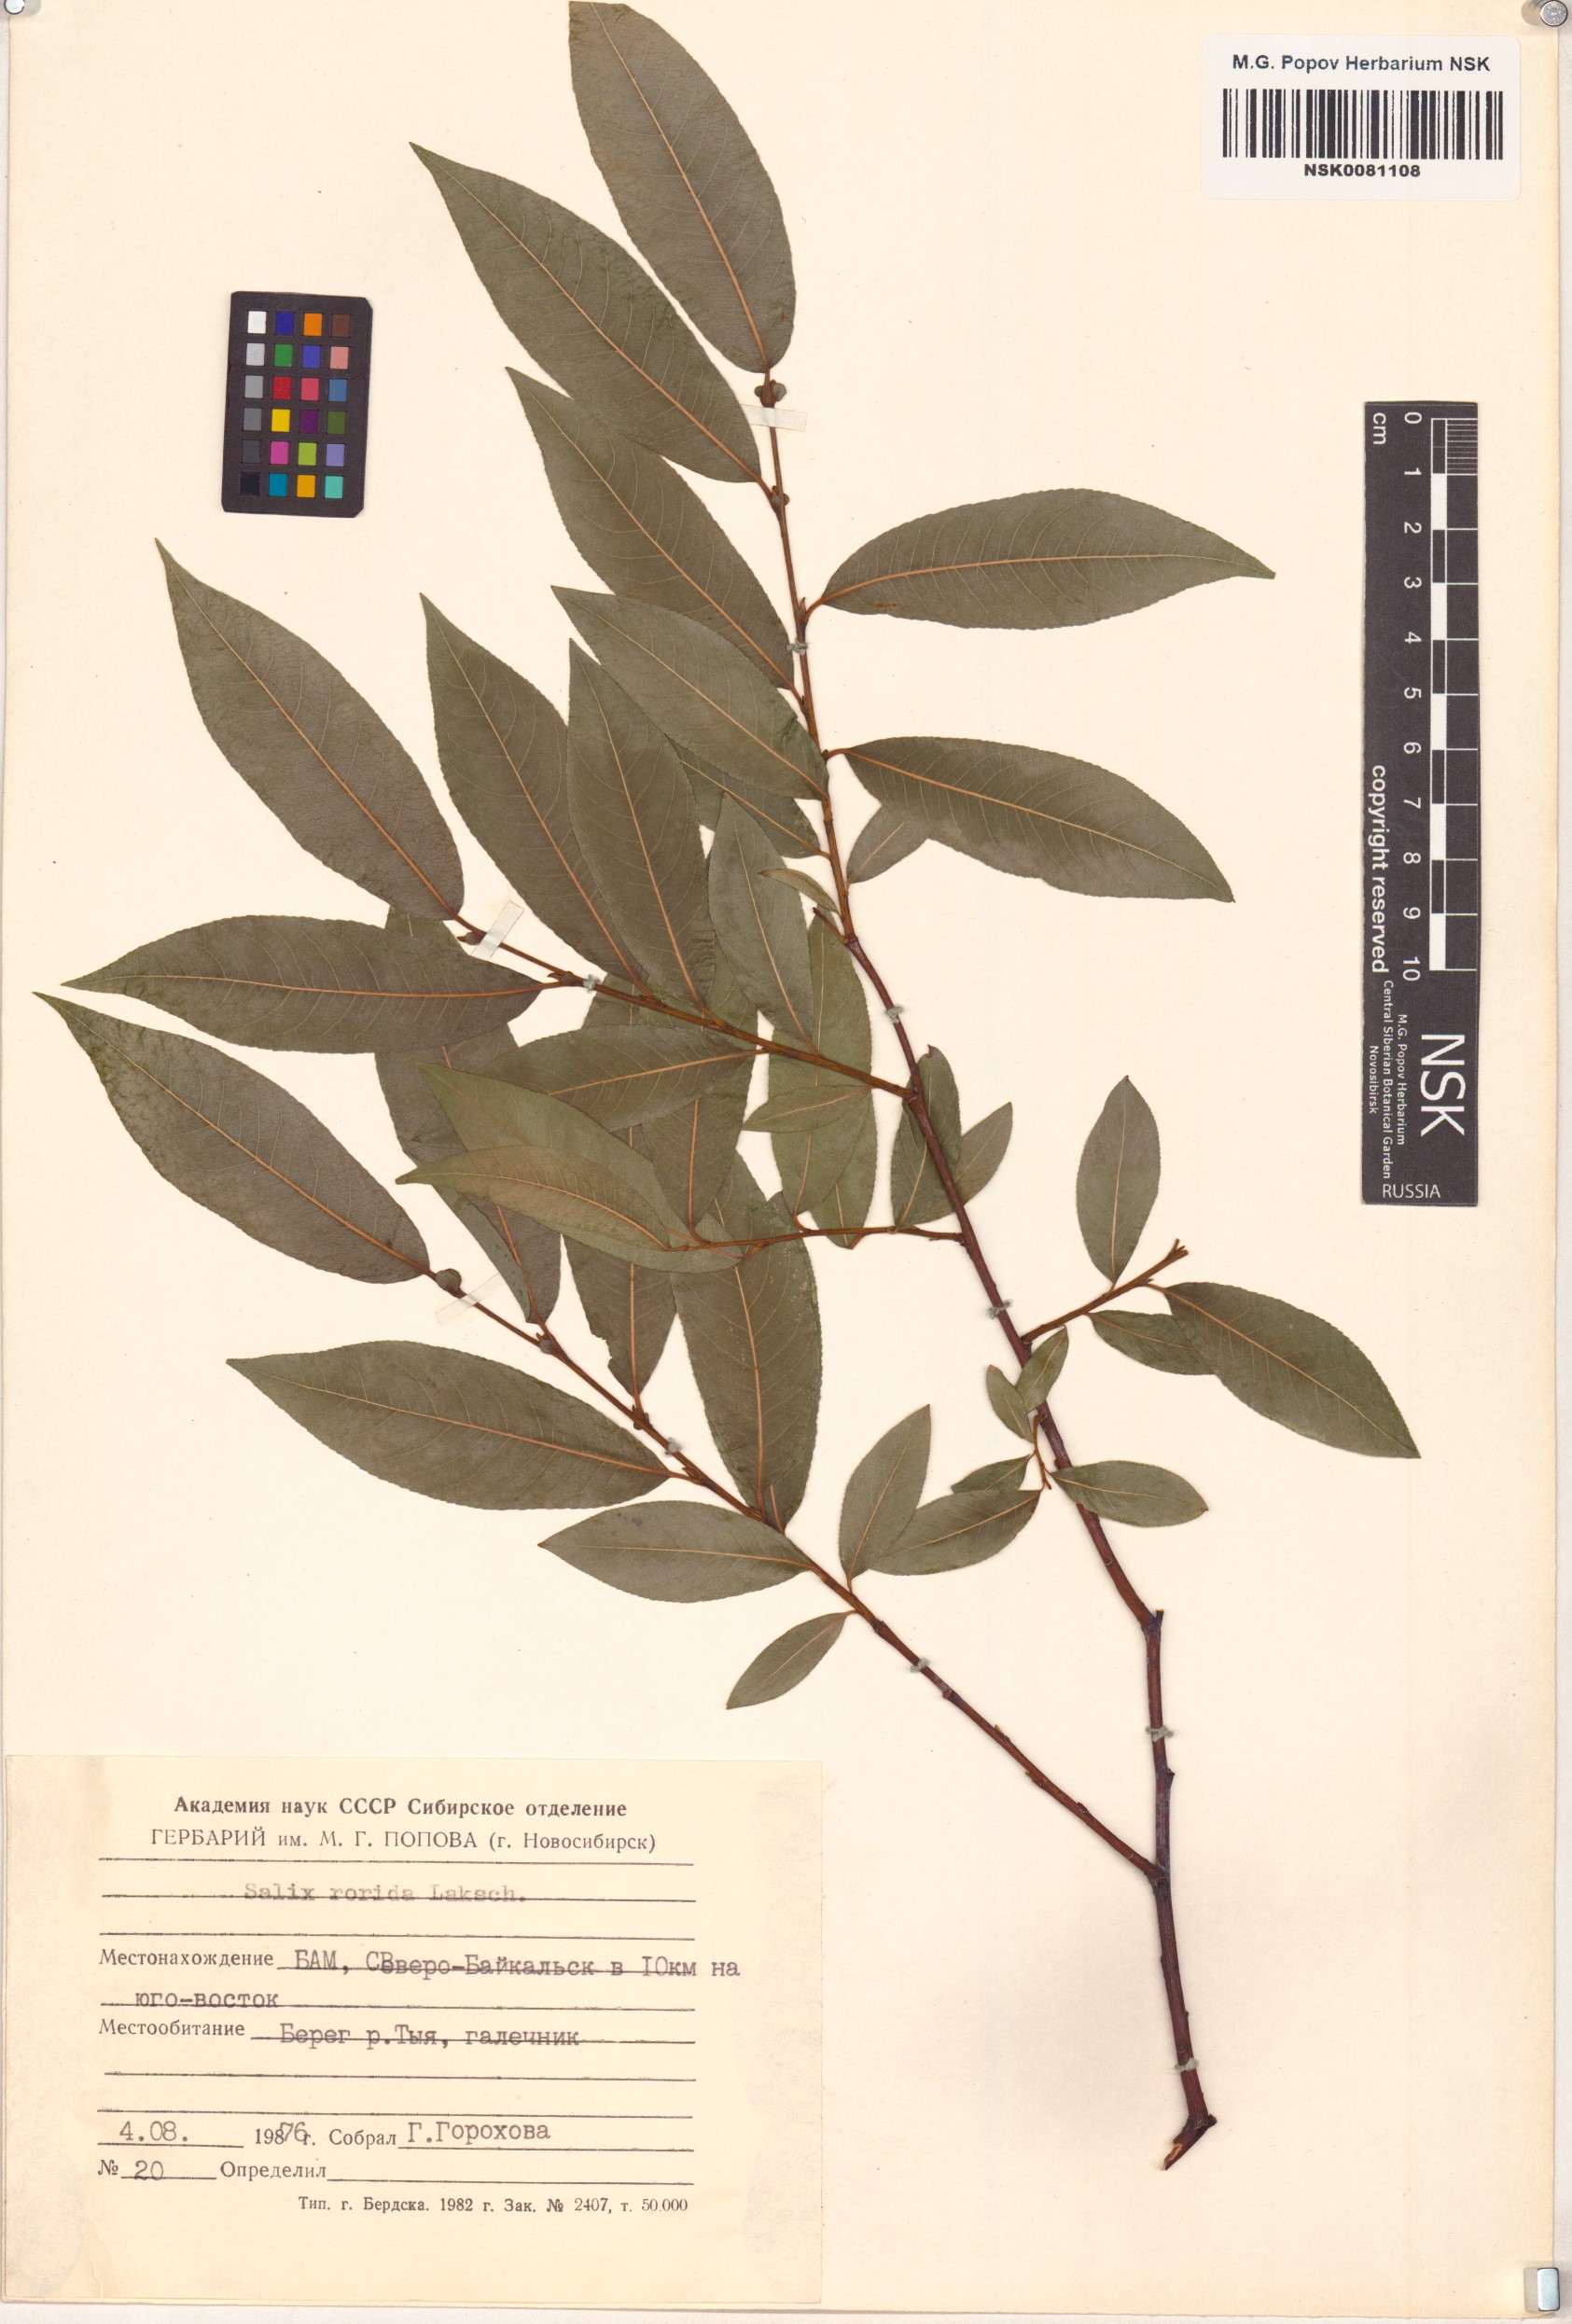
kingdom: Plantae
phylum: Tracheophyta
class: Magnoliopsida
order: Malpighiales
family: Salicaceae
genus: Salix
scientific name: Salix rorida
